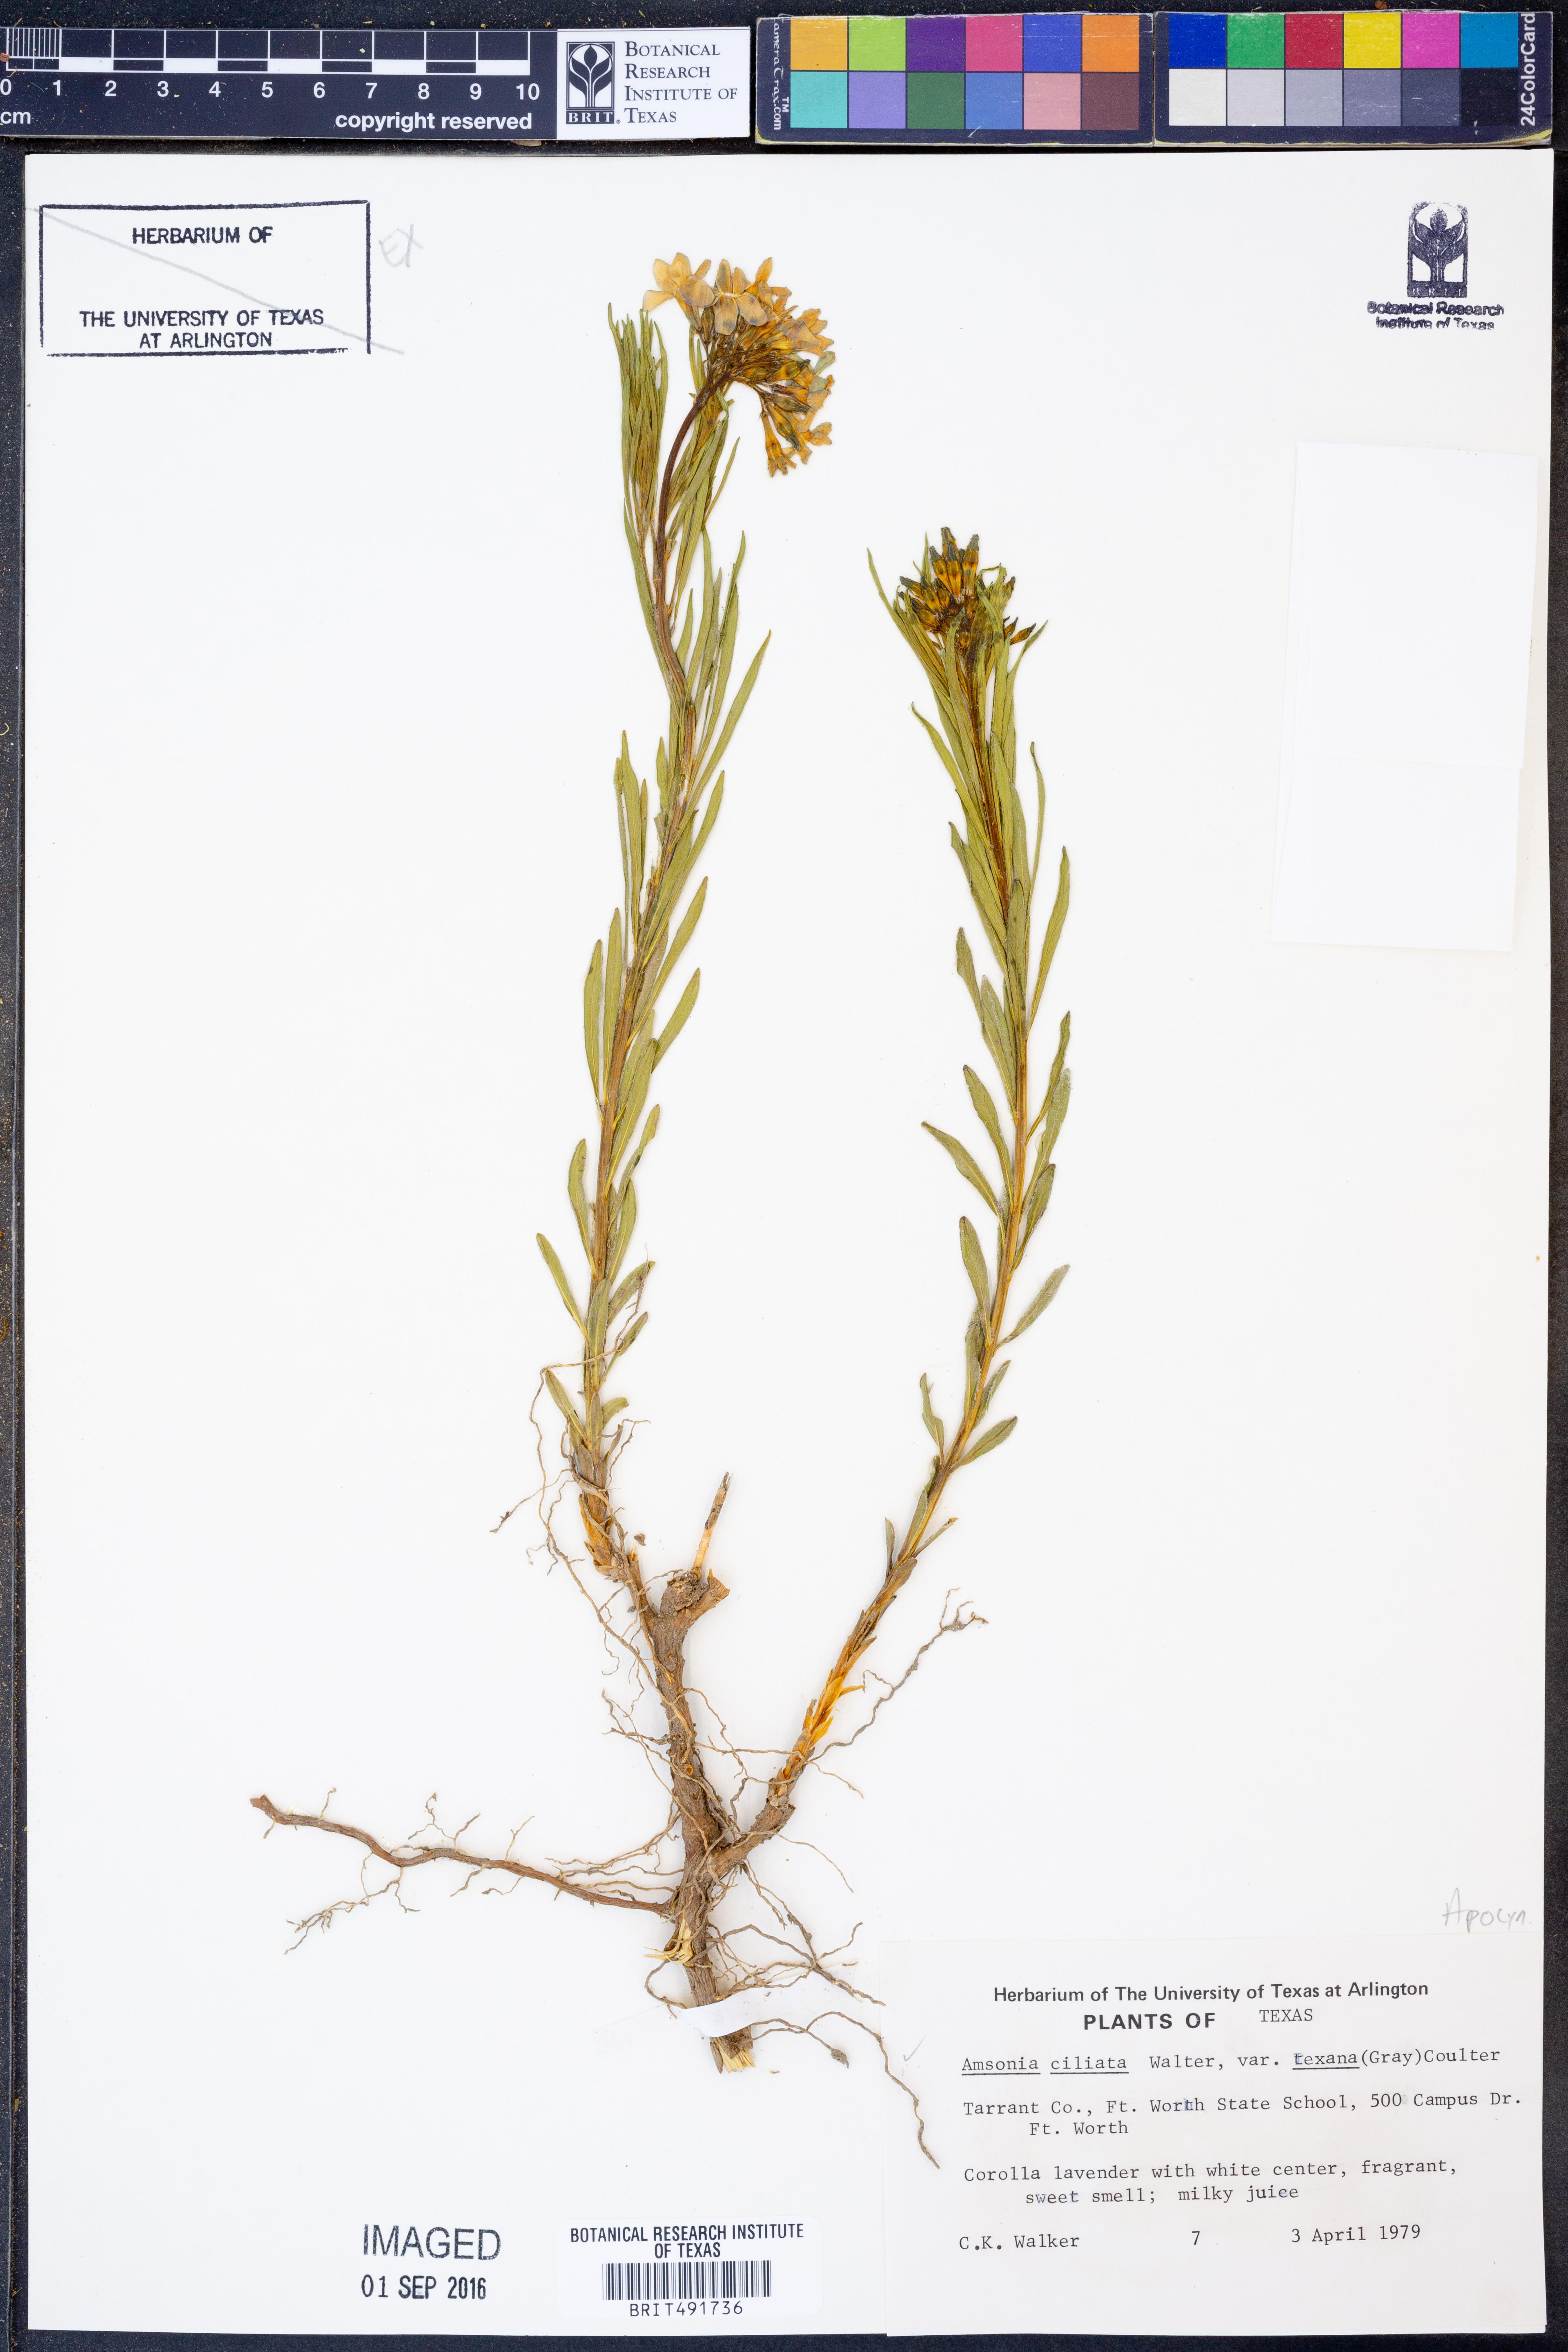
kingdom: Plantae
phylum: Tracheophyta
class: Magnoliopsida
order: Gentianales
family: Apocynaceae
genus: Amsonia
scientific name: Amsonia ciliata
